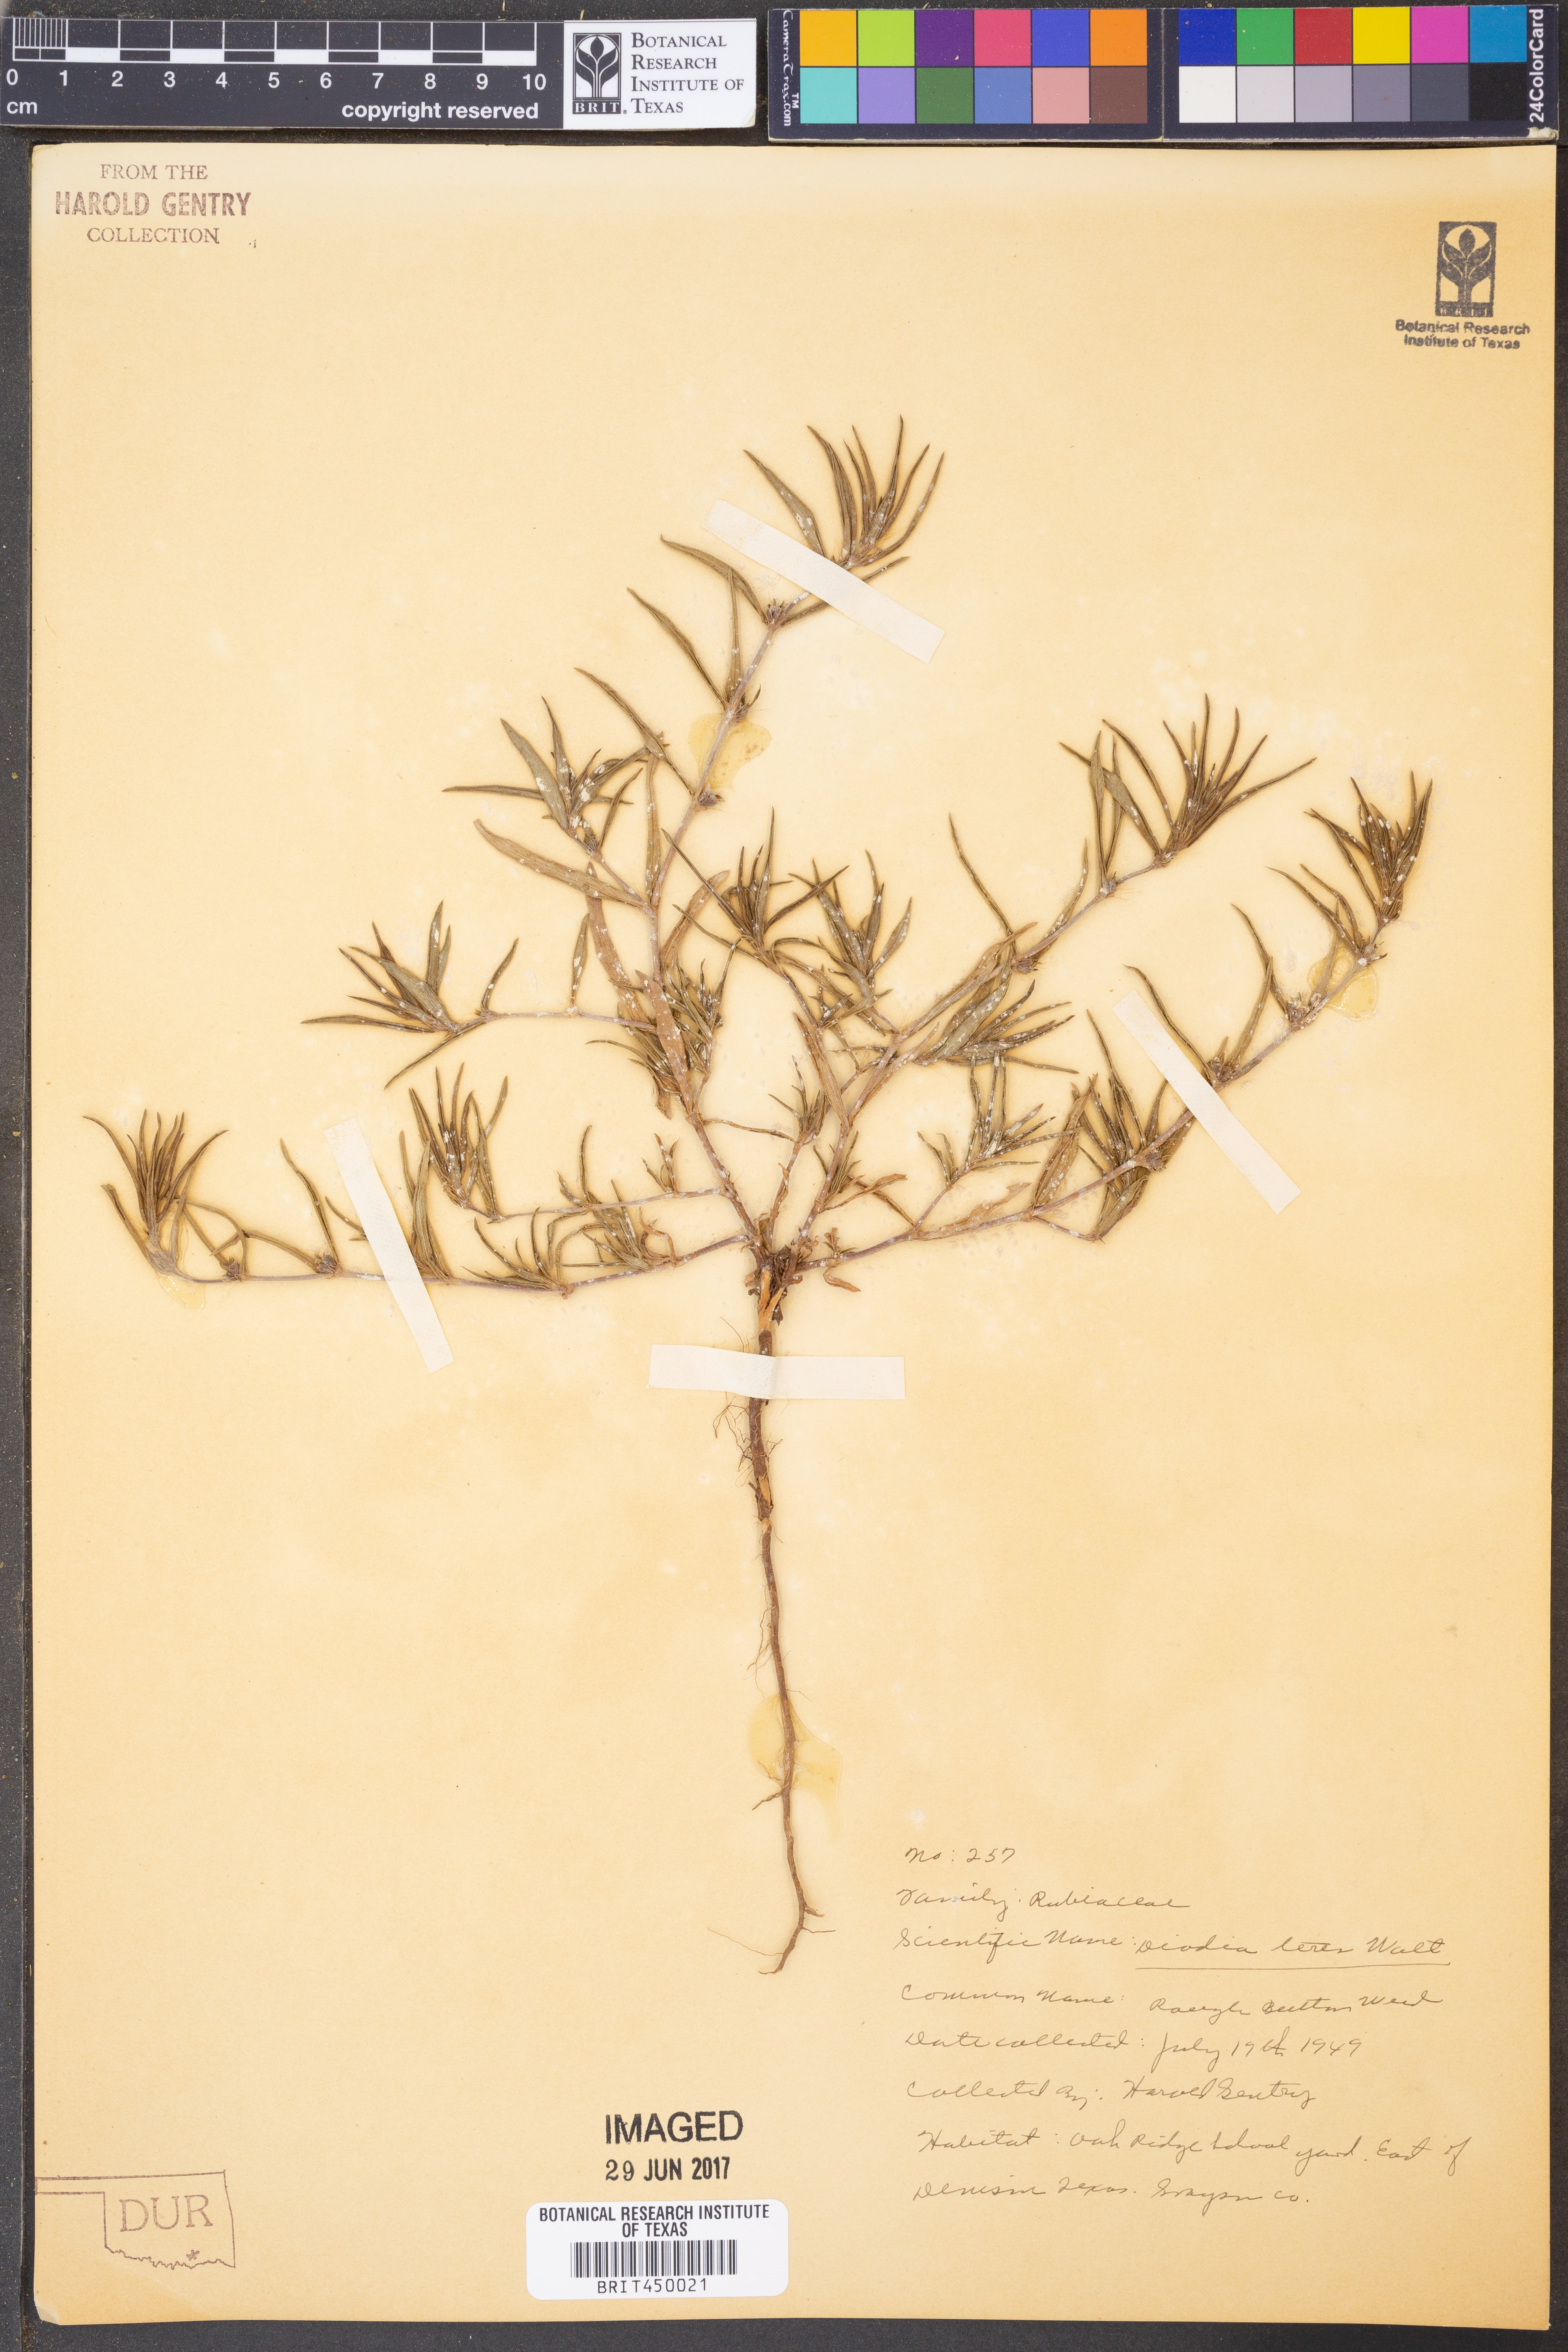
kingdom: Plantae
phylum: Tracheophyta
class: Magnoliopsida
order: Gentianales
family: Rubiaceae
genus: Hexasepalum
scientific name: Hexasepalum teres
